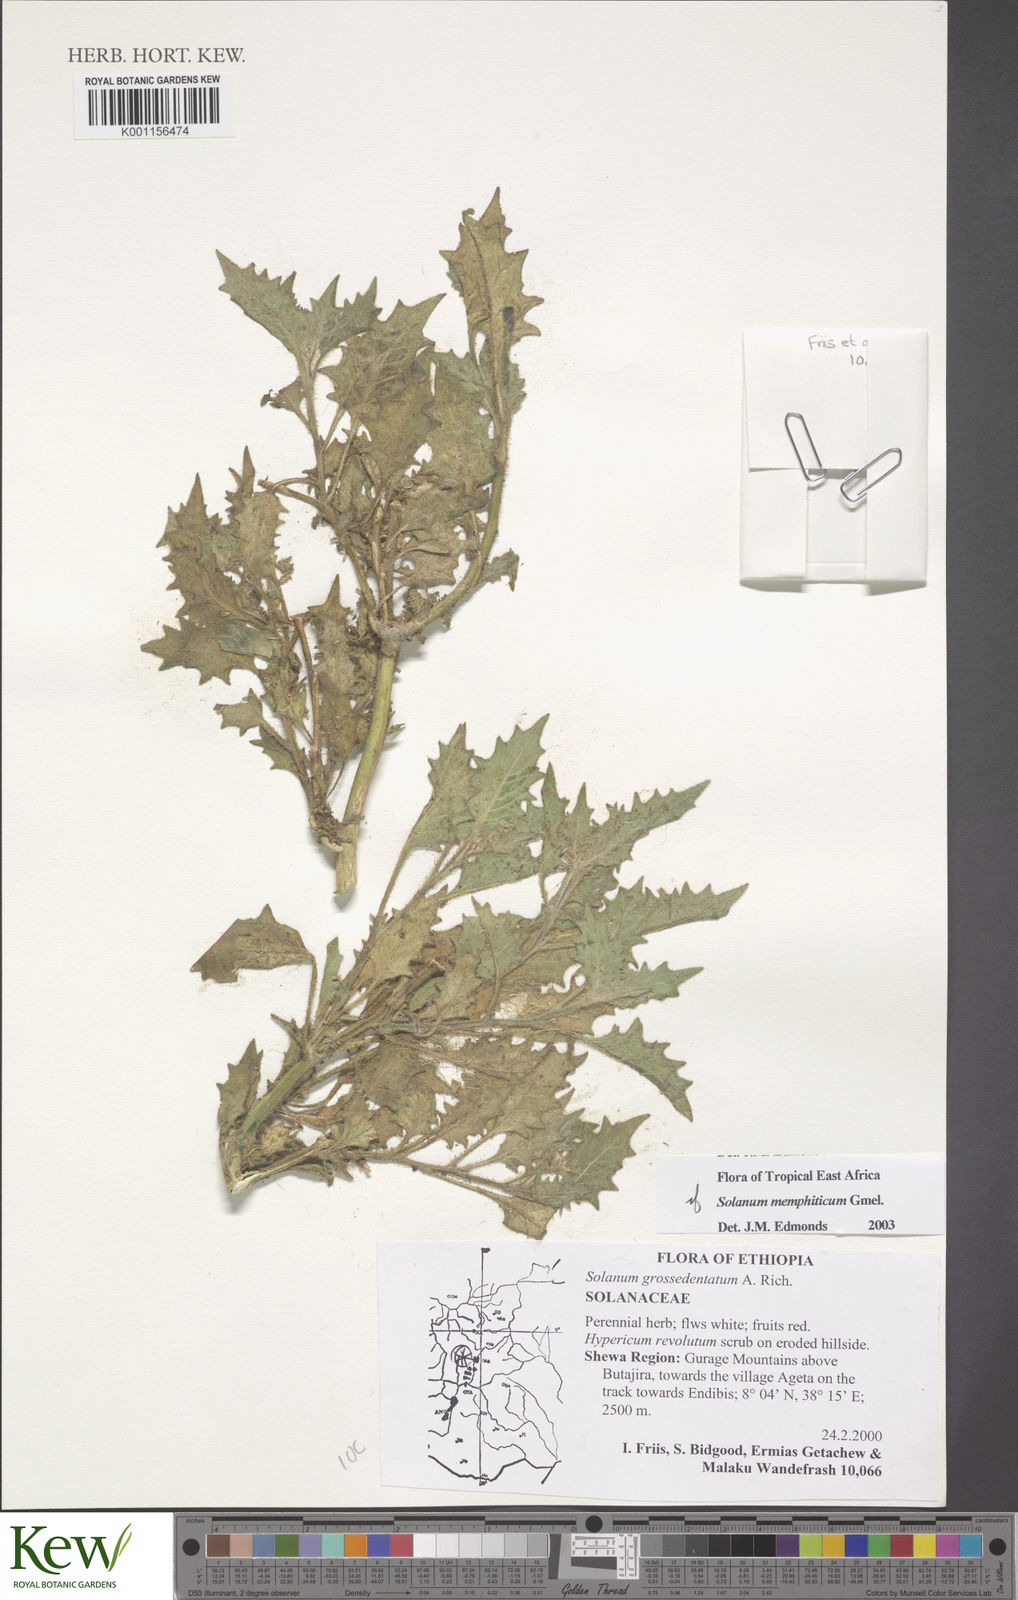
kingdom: Plantae
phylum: Tracheophyta
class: Magnoliopsida
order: Solanales
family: Solanaceae
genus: Solanum
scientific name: Solanum memphiticum
